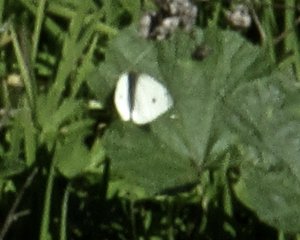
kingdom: Animalia
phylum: Arthropoda
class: Insecta
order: Lepidoptera
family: Pieridae
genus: Pieris
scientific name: Pieris rapae
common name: Cabbage White
